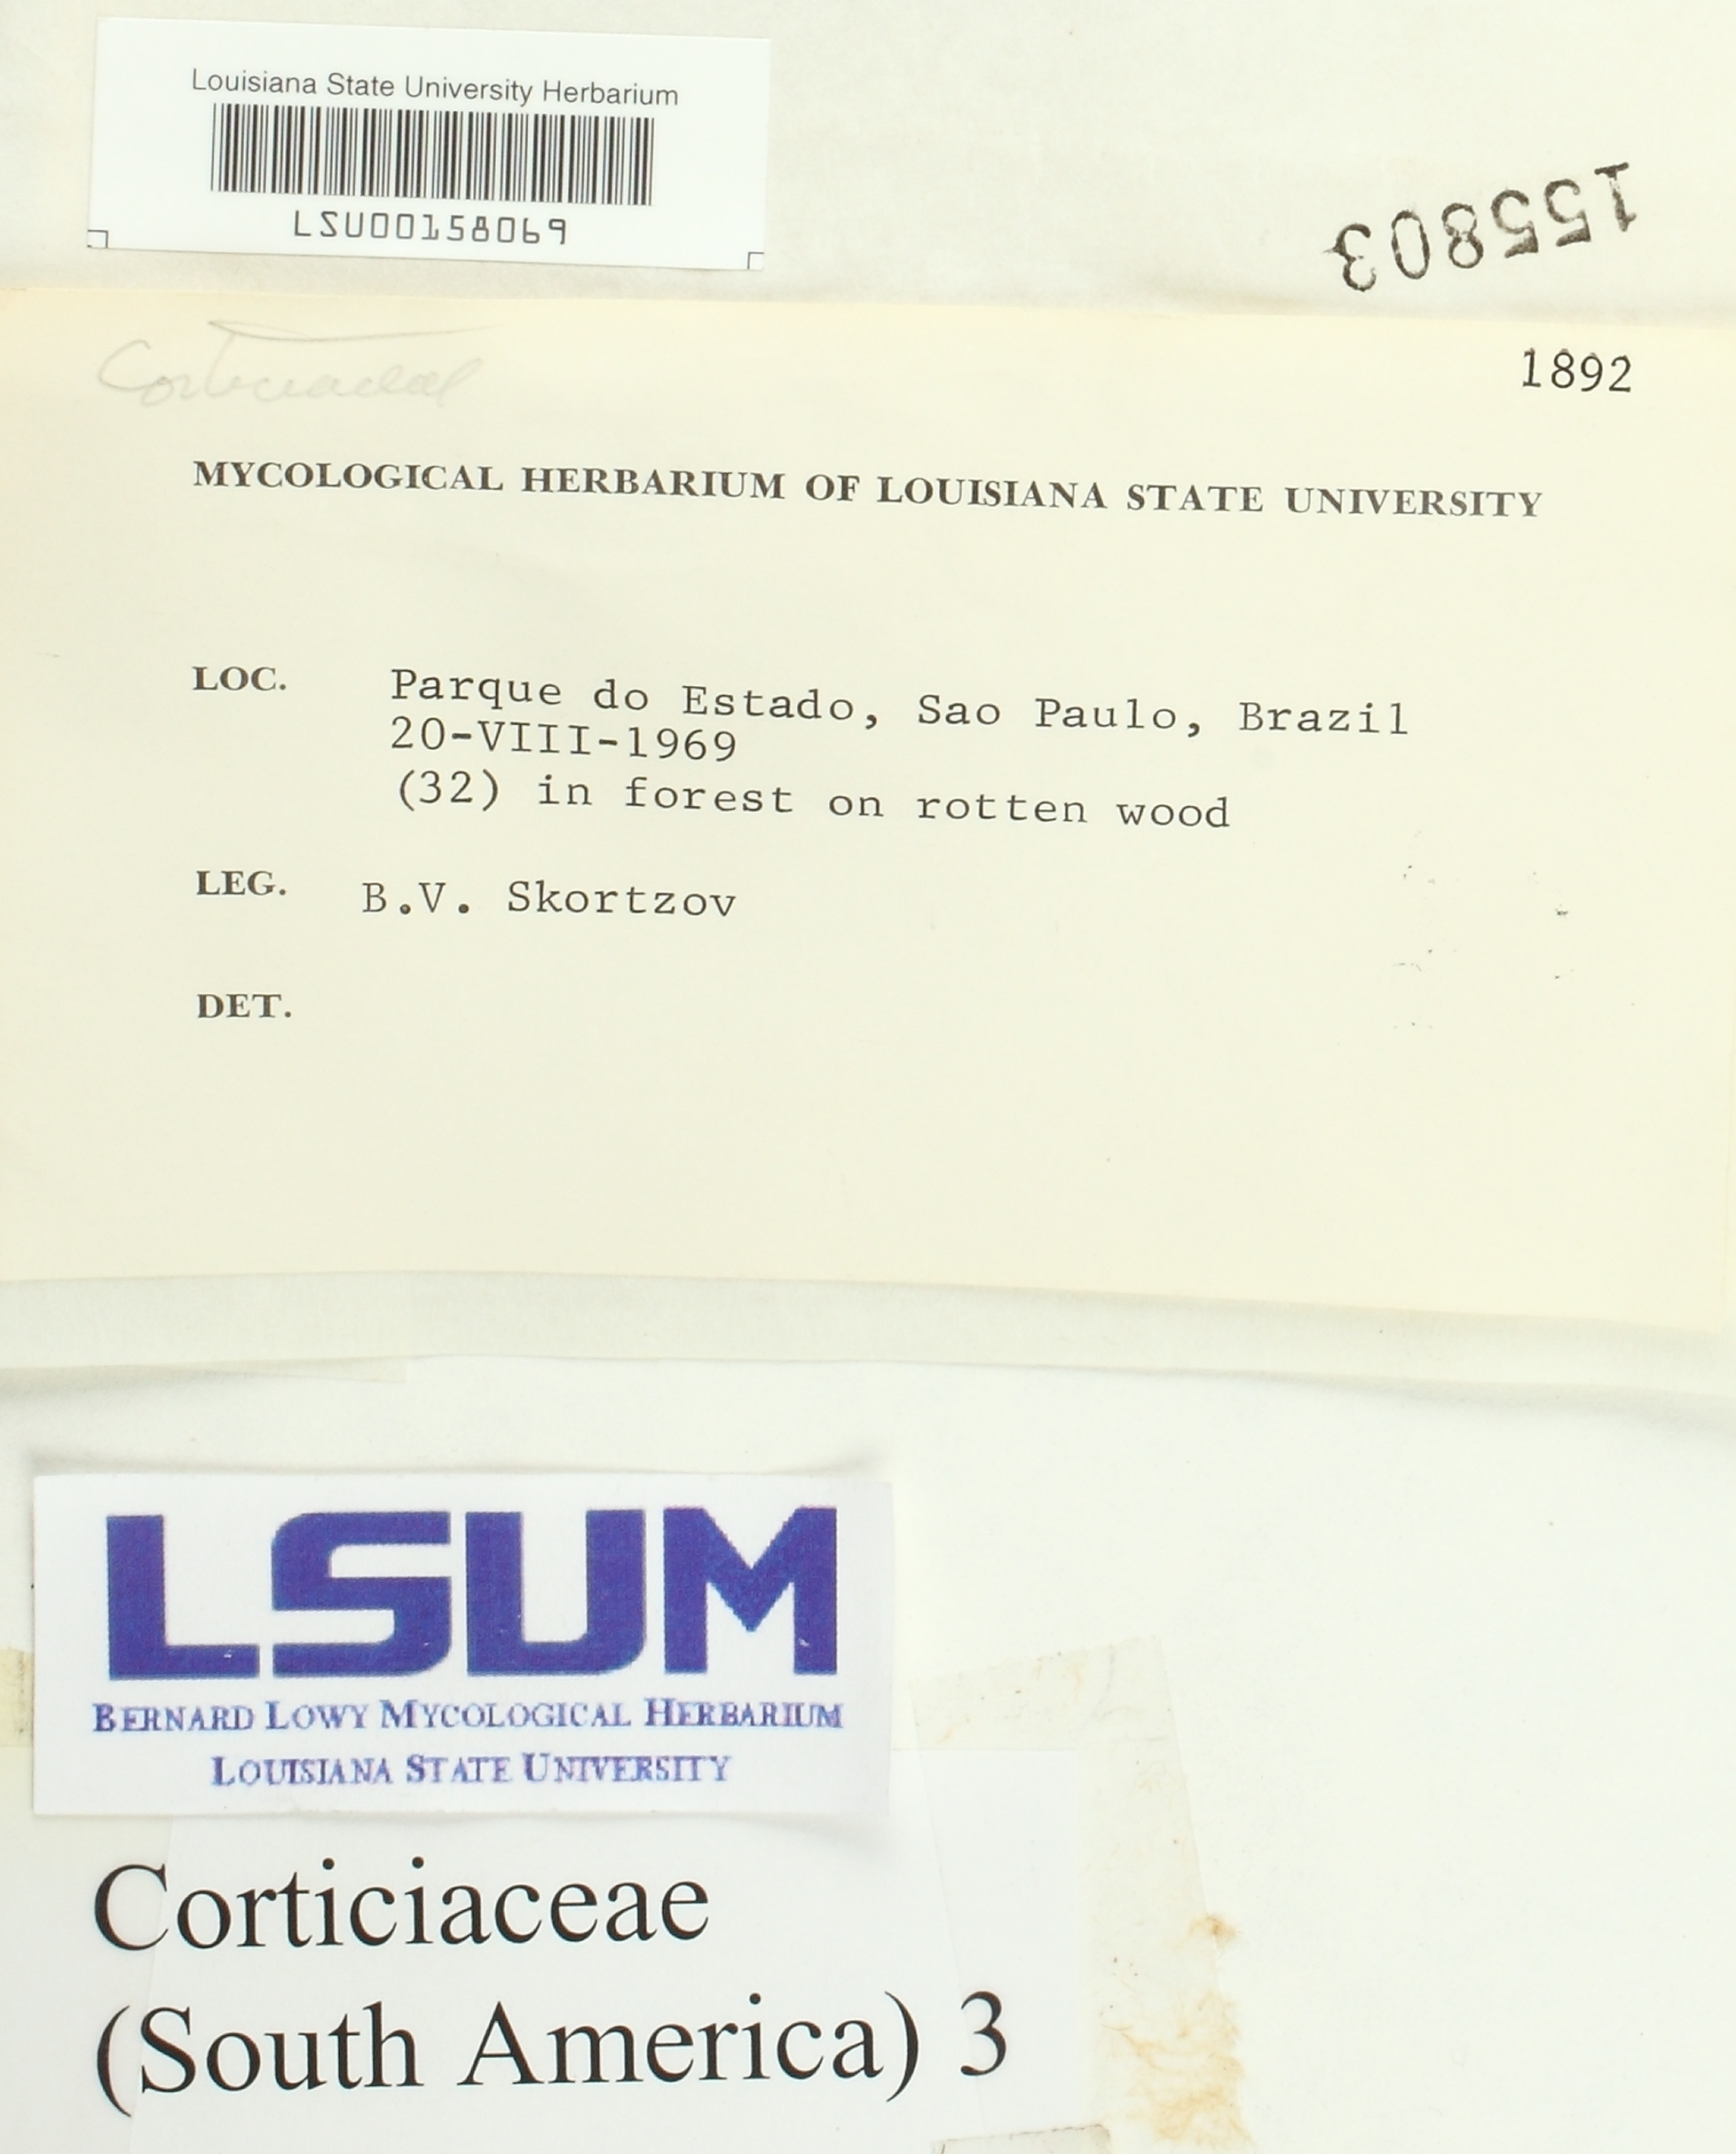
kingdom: Fungi
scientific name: Fungi
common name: Fungi
